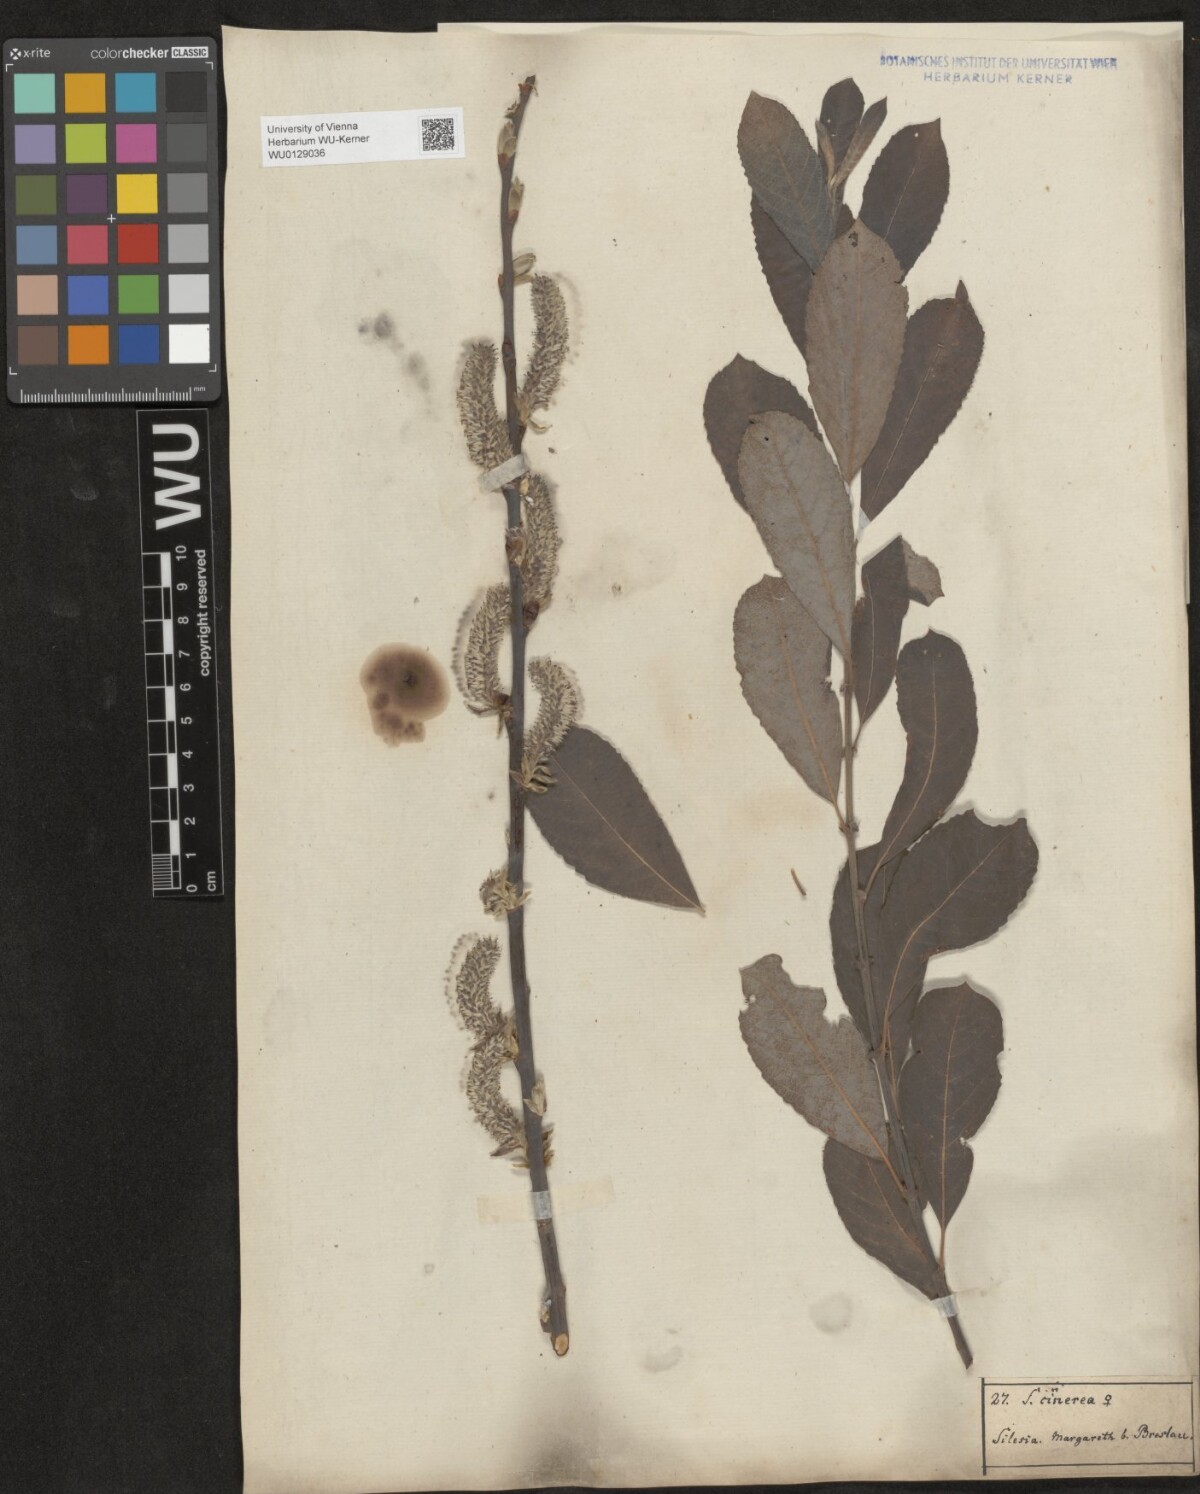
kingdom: Plantae
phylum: Tracheophyta
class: Magnoliopsida
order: Malpighiales
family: Salicaceae
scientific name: Salicaceae
